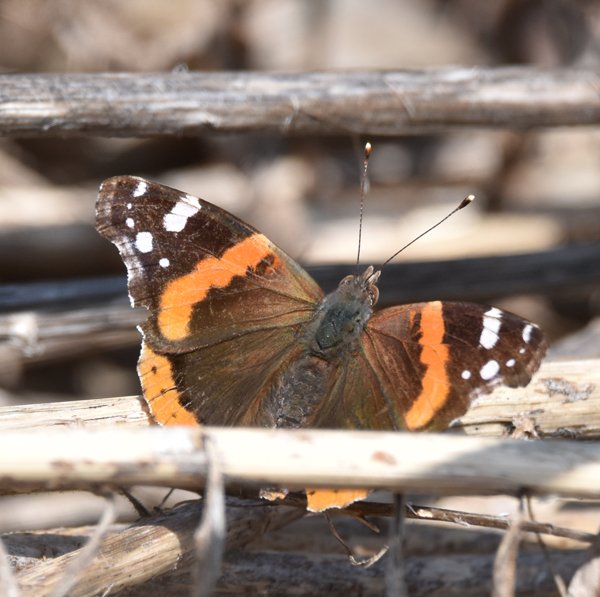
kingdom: Animalia
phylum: Arthropoda
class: Insecta
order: Lepidoptera
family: Nymphalidae
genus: Vanessa
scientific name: Vanessa atalanta
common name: Red Admiral
